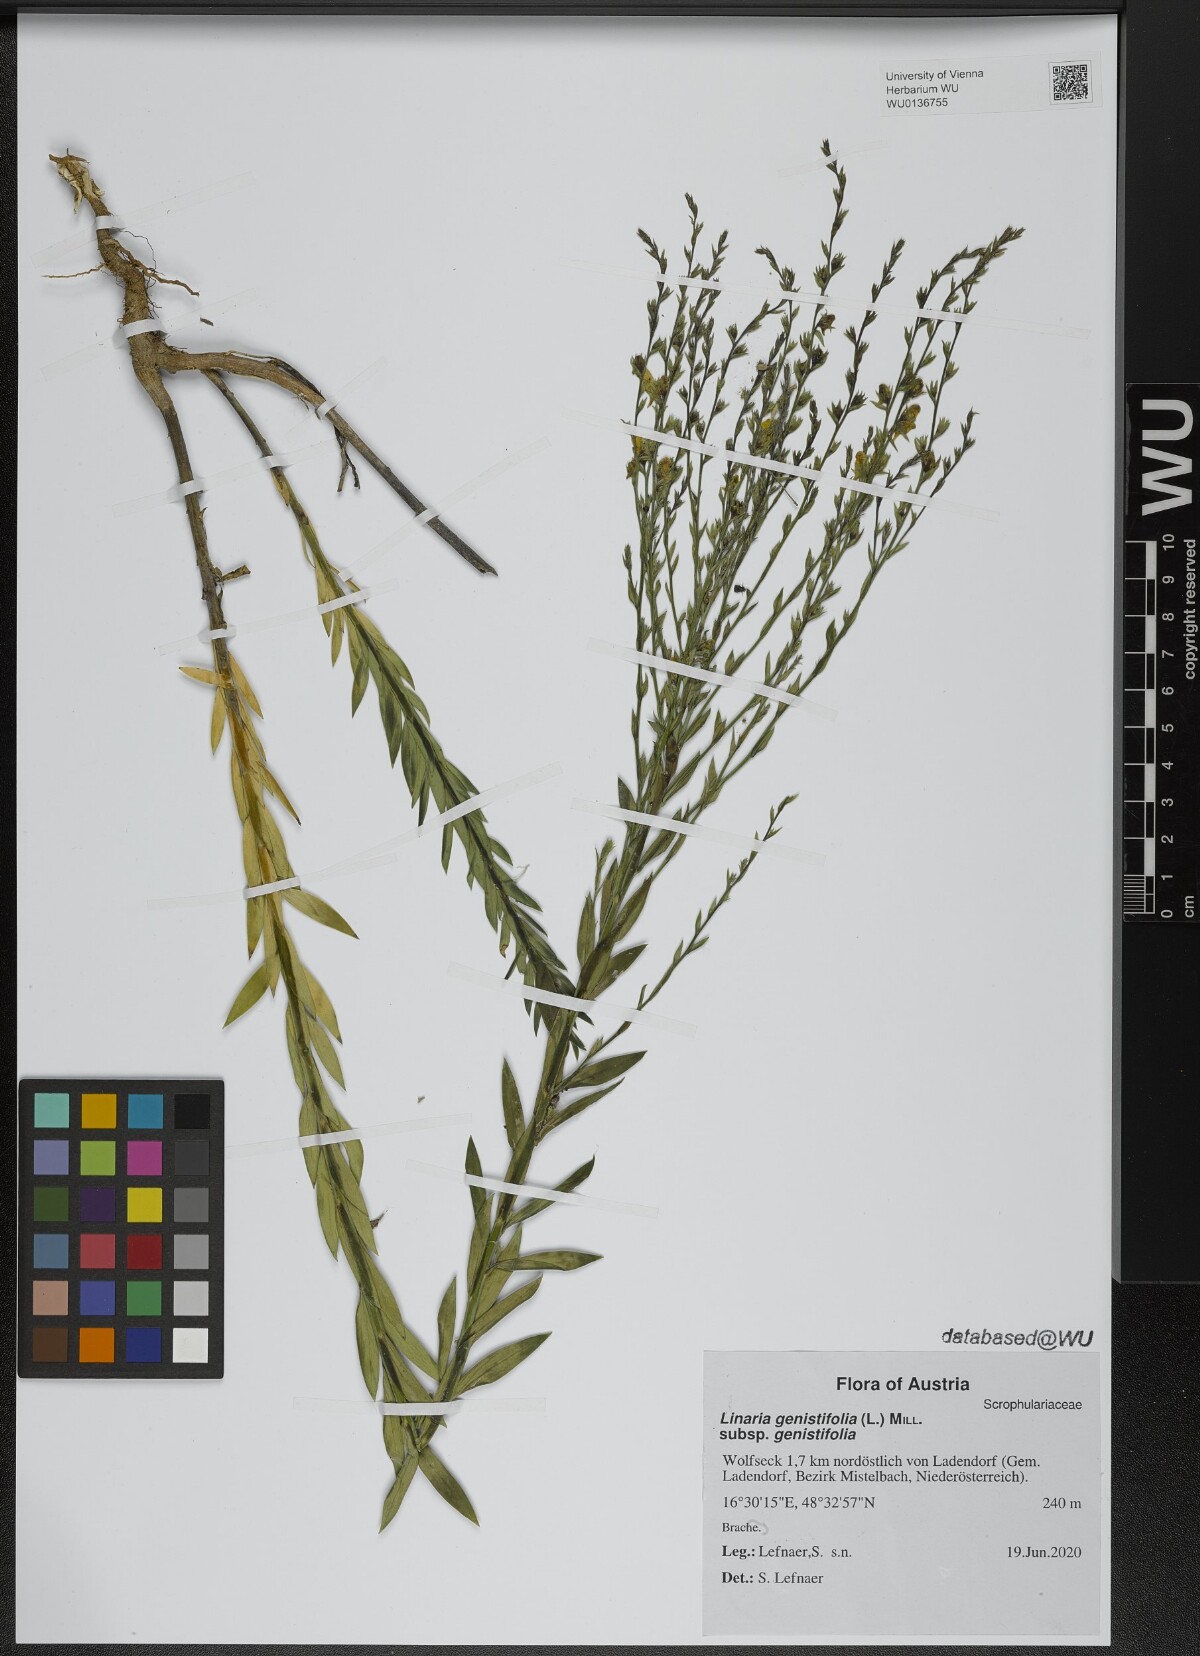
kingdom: Plantae
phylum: Tracheophyta
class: Magnoliopsida
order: Lamiales
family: Plantaginaceae
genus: Linaria
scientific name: Linaria genistifolia
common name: Broomleaf toadflax
